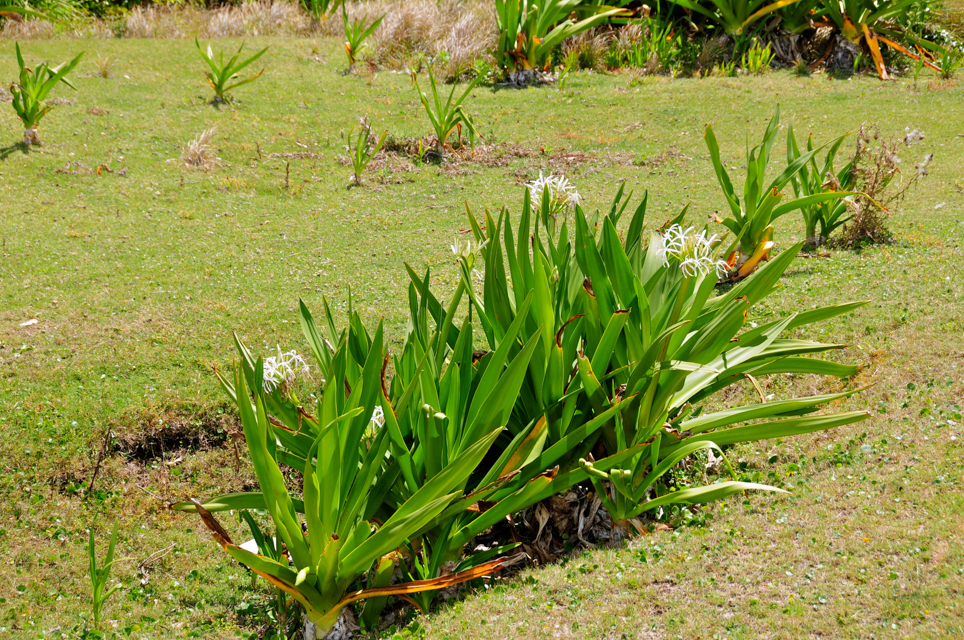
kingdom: Plantae
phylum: Tracheophyta
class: Liliopsida
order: Asparagales
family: Amaryllidaceae
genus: Crinum
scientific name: Crinum asiaticum
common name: Poisonbulb
